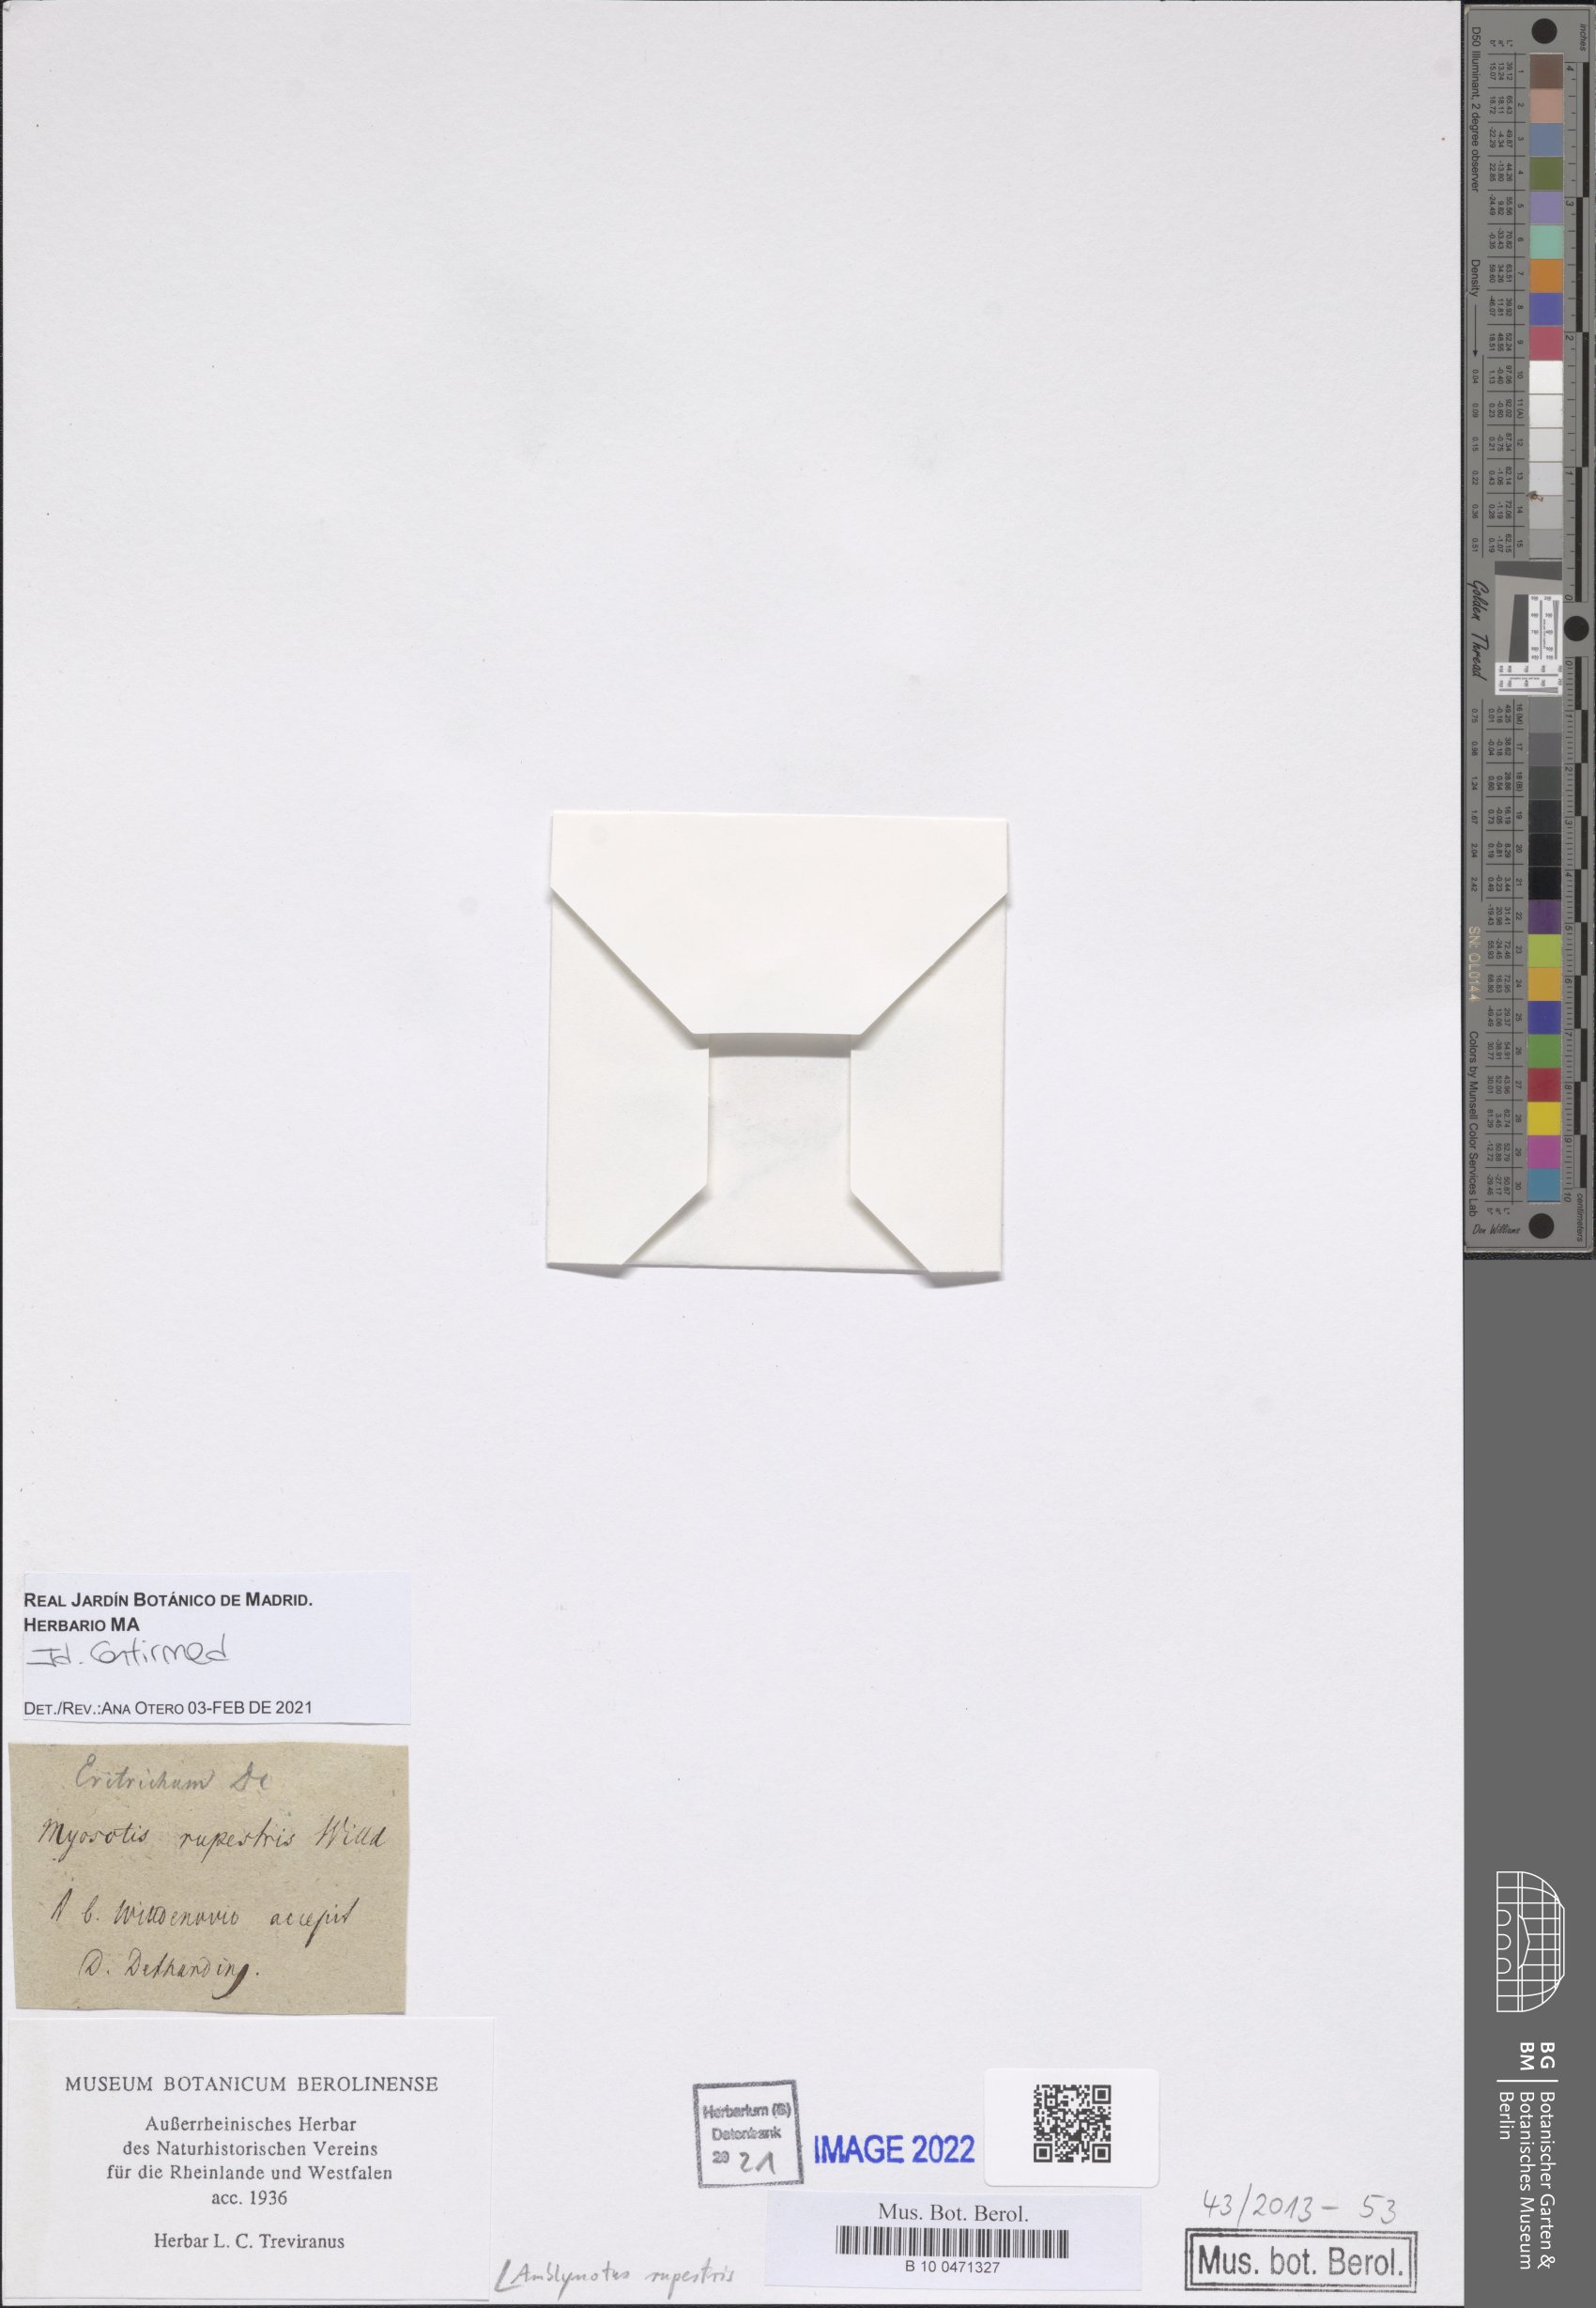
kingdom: Plantae
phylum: Tracheophyta
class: Magnoliopsida
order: Boraginales
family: Boraginaceae
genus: Eritrichium
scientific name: Eritrichium rupestre
